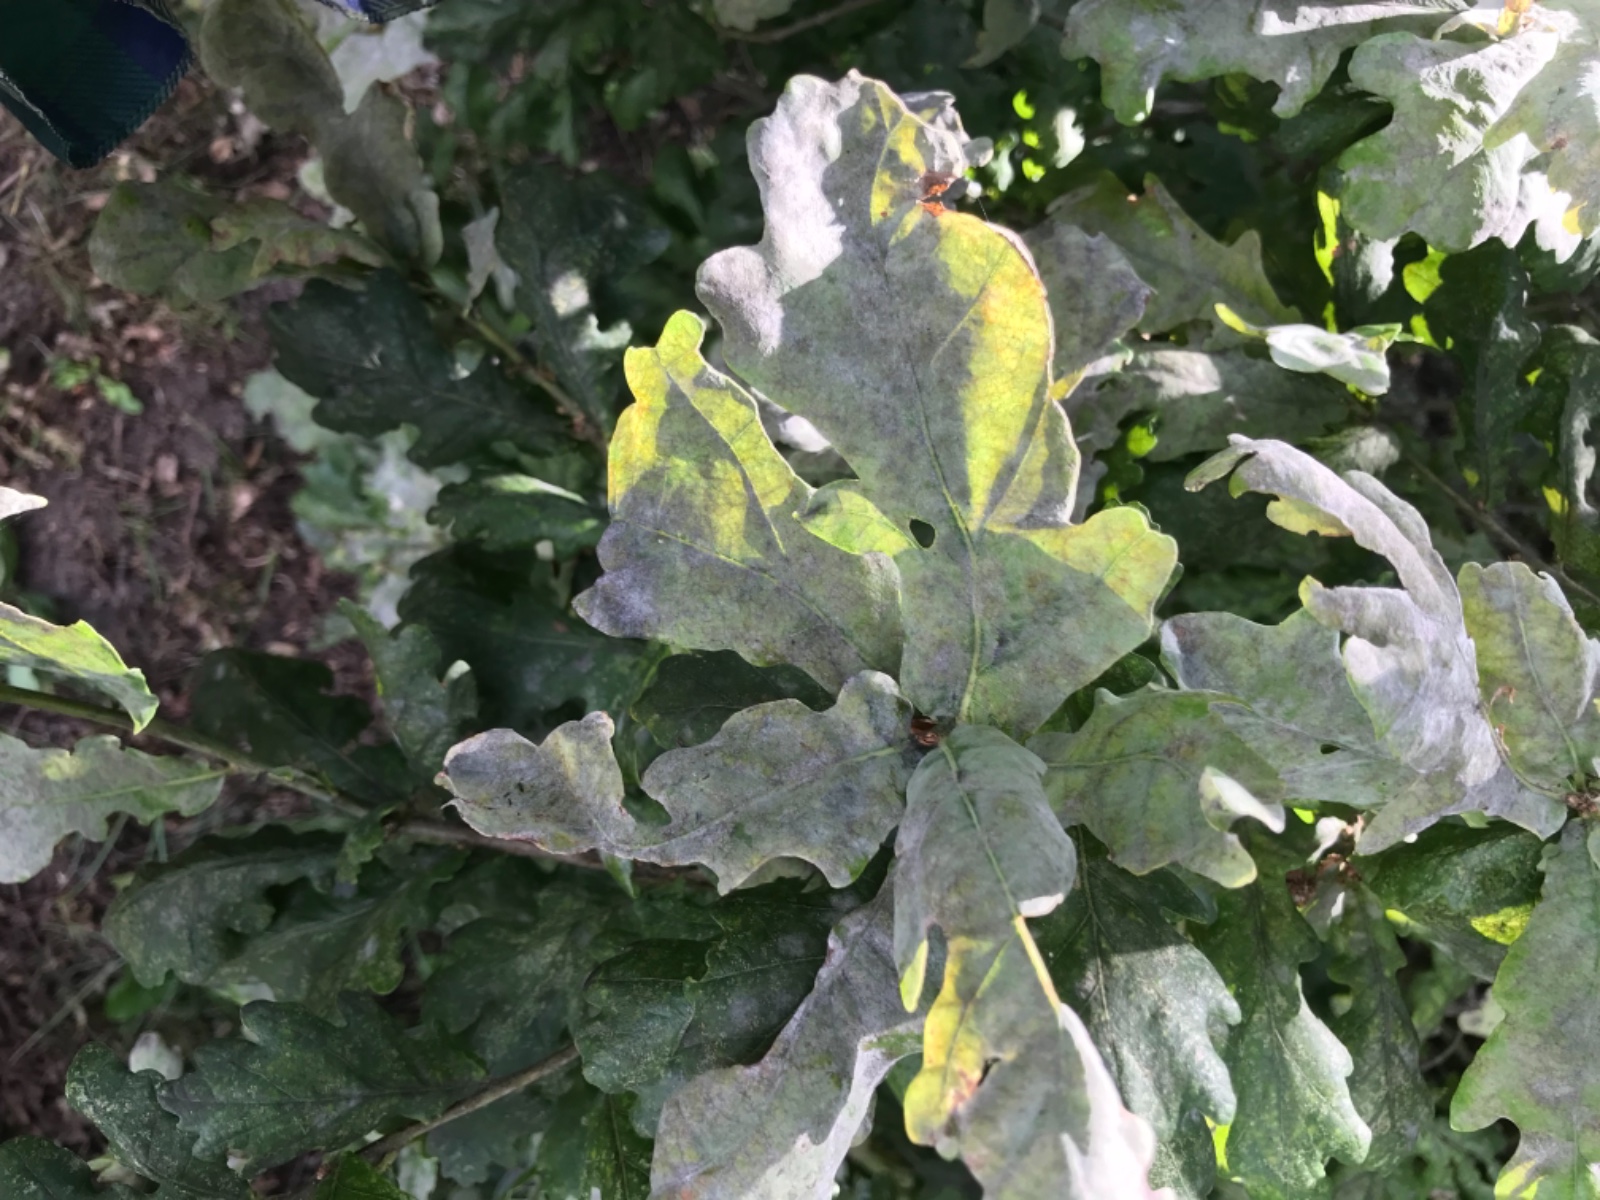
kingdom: Fungi
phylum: Ascomycota
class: Leotiomycetes
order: Helotiales
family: Erysiphaceae
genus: Erysiphe
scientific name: Erysiphe alphitoides
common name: ege-meldug
